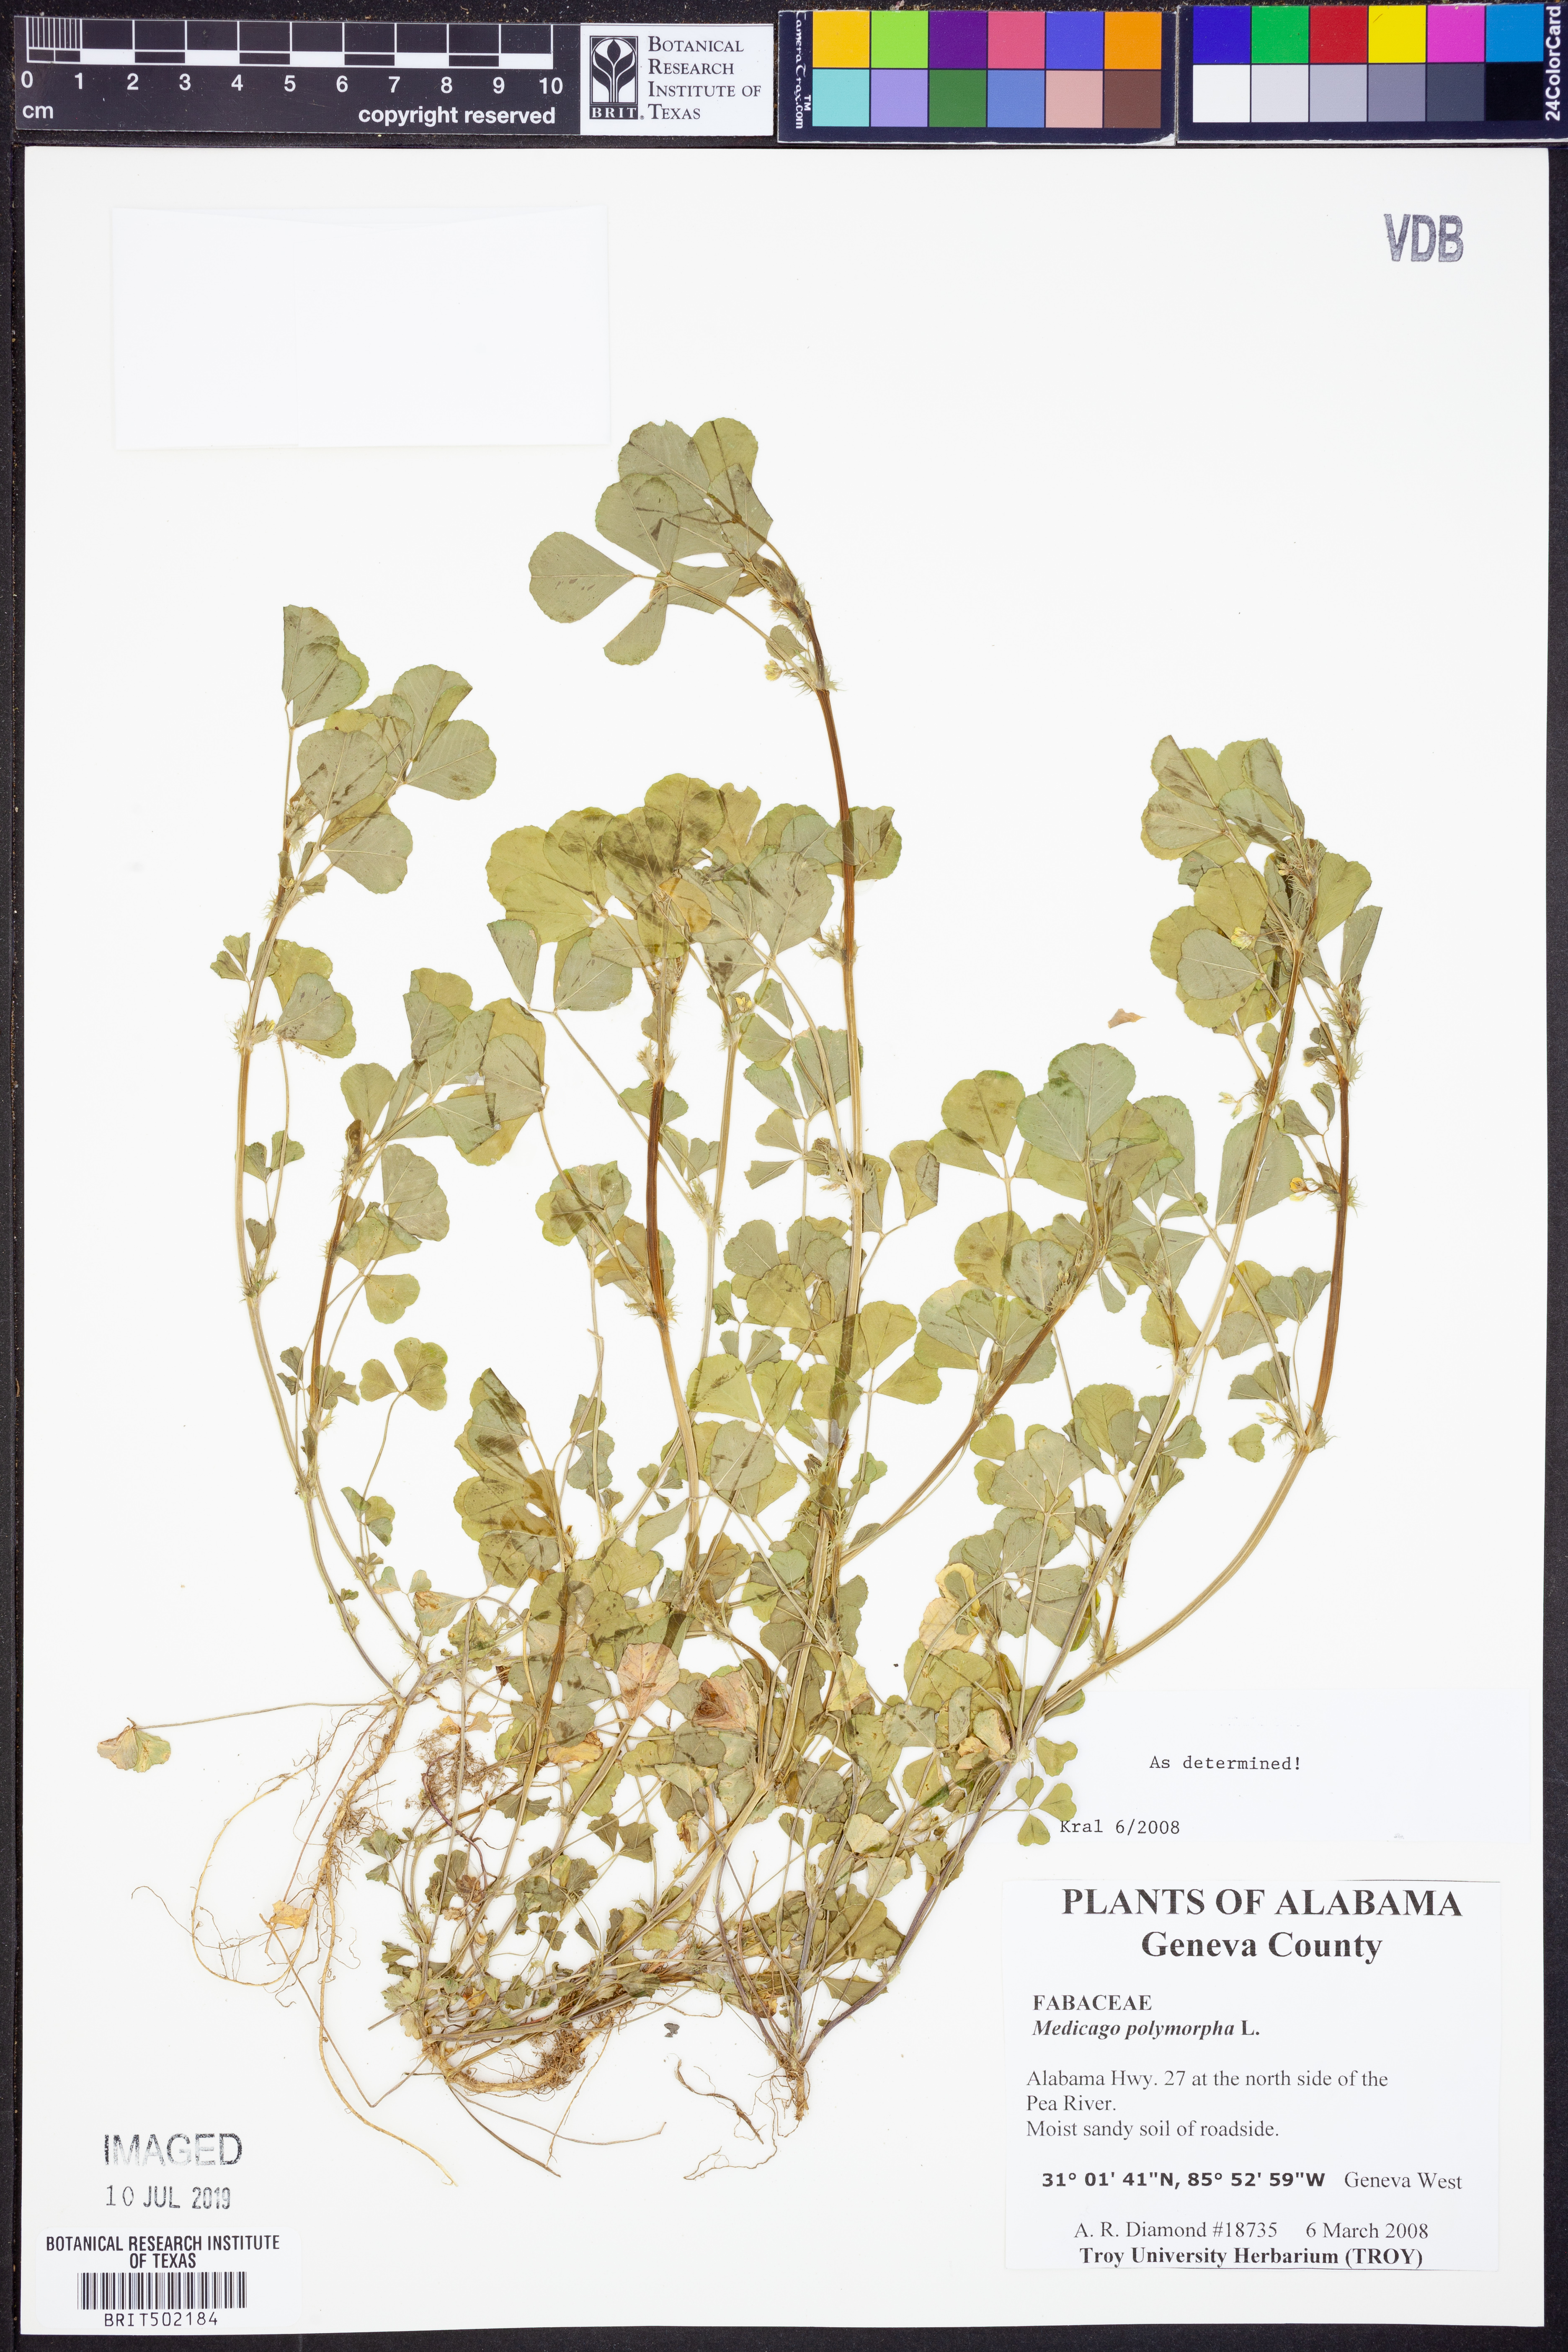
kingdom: Plantae
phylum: Tracheophyta
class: Magnoliopsida
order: Fabales
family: Fabaceae
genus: Medicago
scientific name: Medicago polymorpha
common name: Burclover
